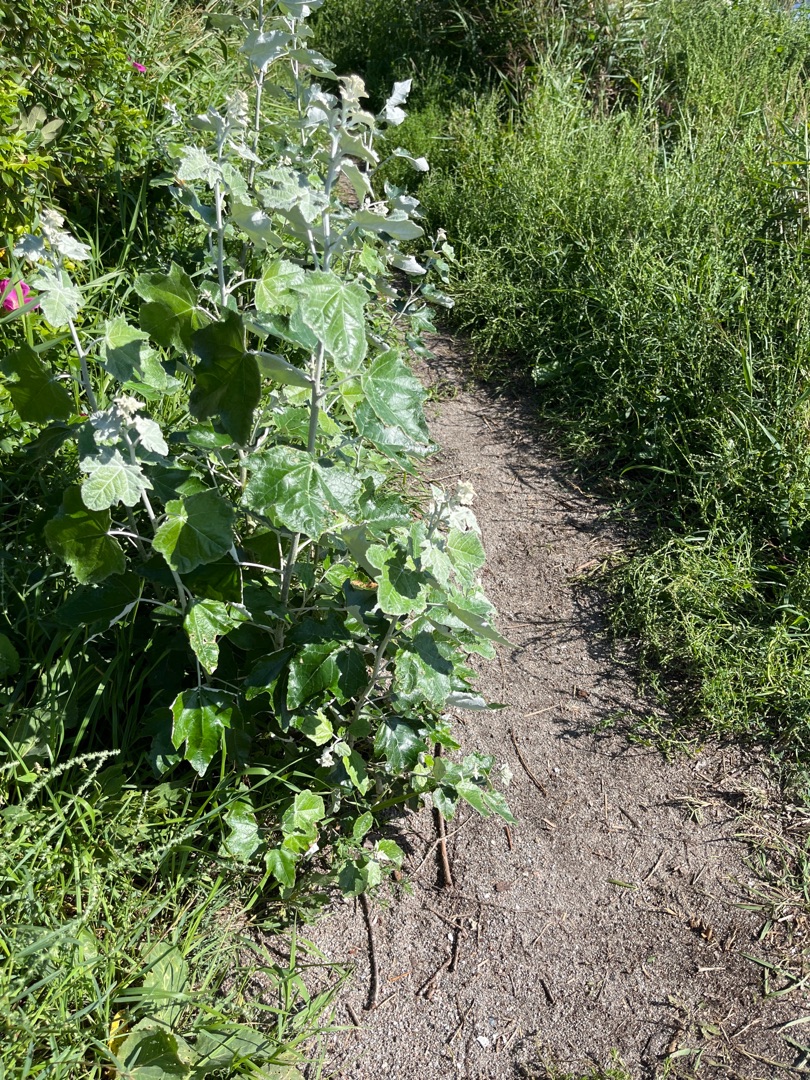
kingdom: Plantae
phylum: Tracheophyta
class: Magnoliopsida
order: Malpighiales
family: Salicaceae
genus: Populus
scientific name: Populus alba
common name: Sølv-poppel
